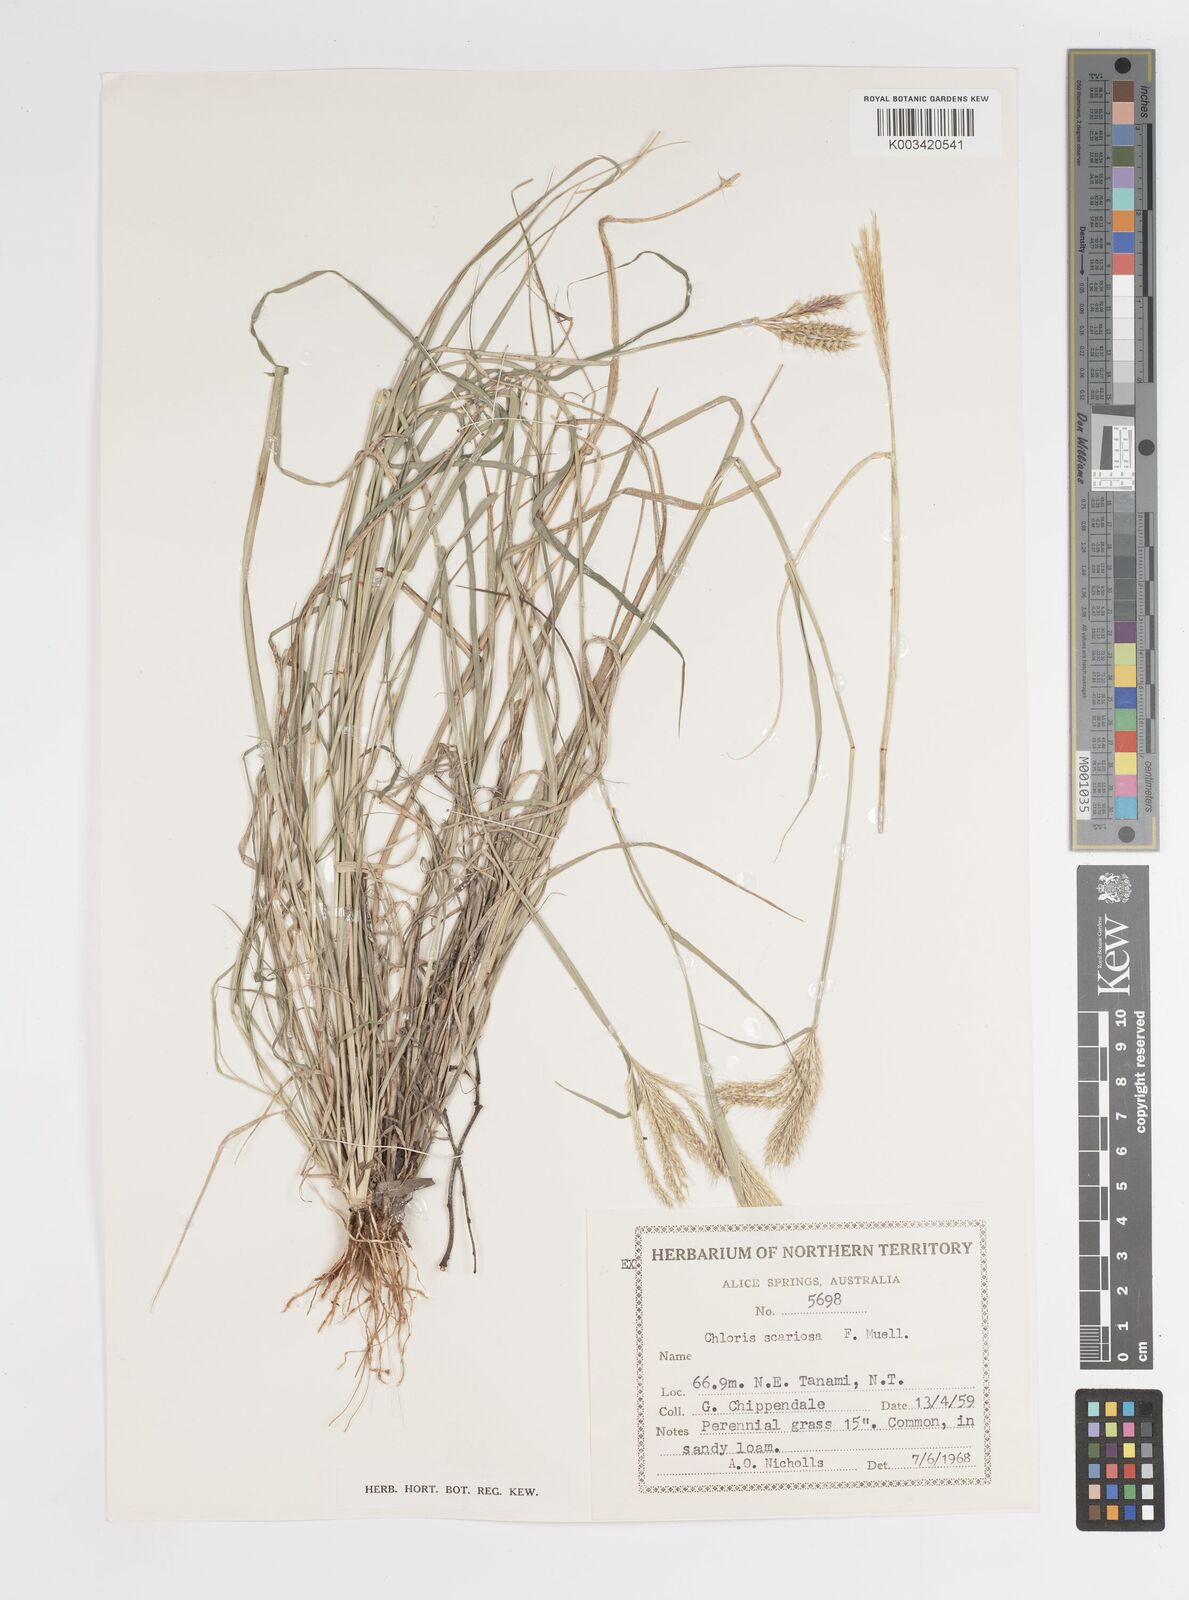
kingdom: Plantae
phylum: Tracheophyta
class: Liliopsida
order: Poales
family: Poaceae
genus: Oxychloris
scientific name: Oxychloris scariosa
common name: Winged windmill grass
